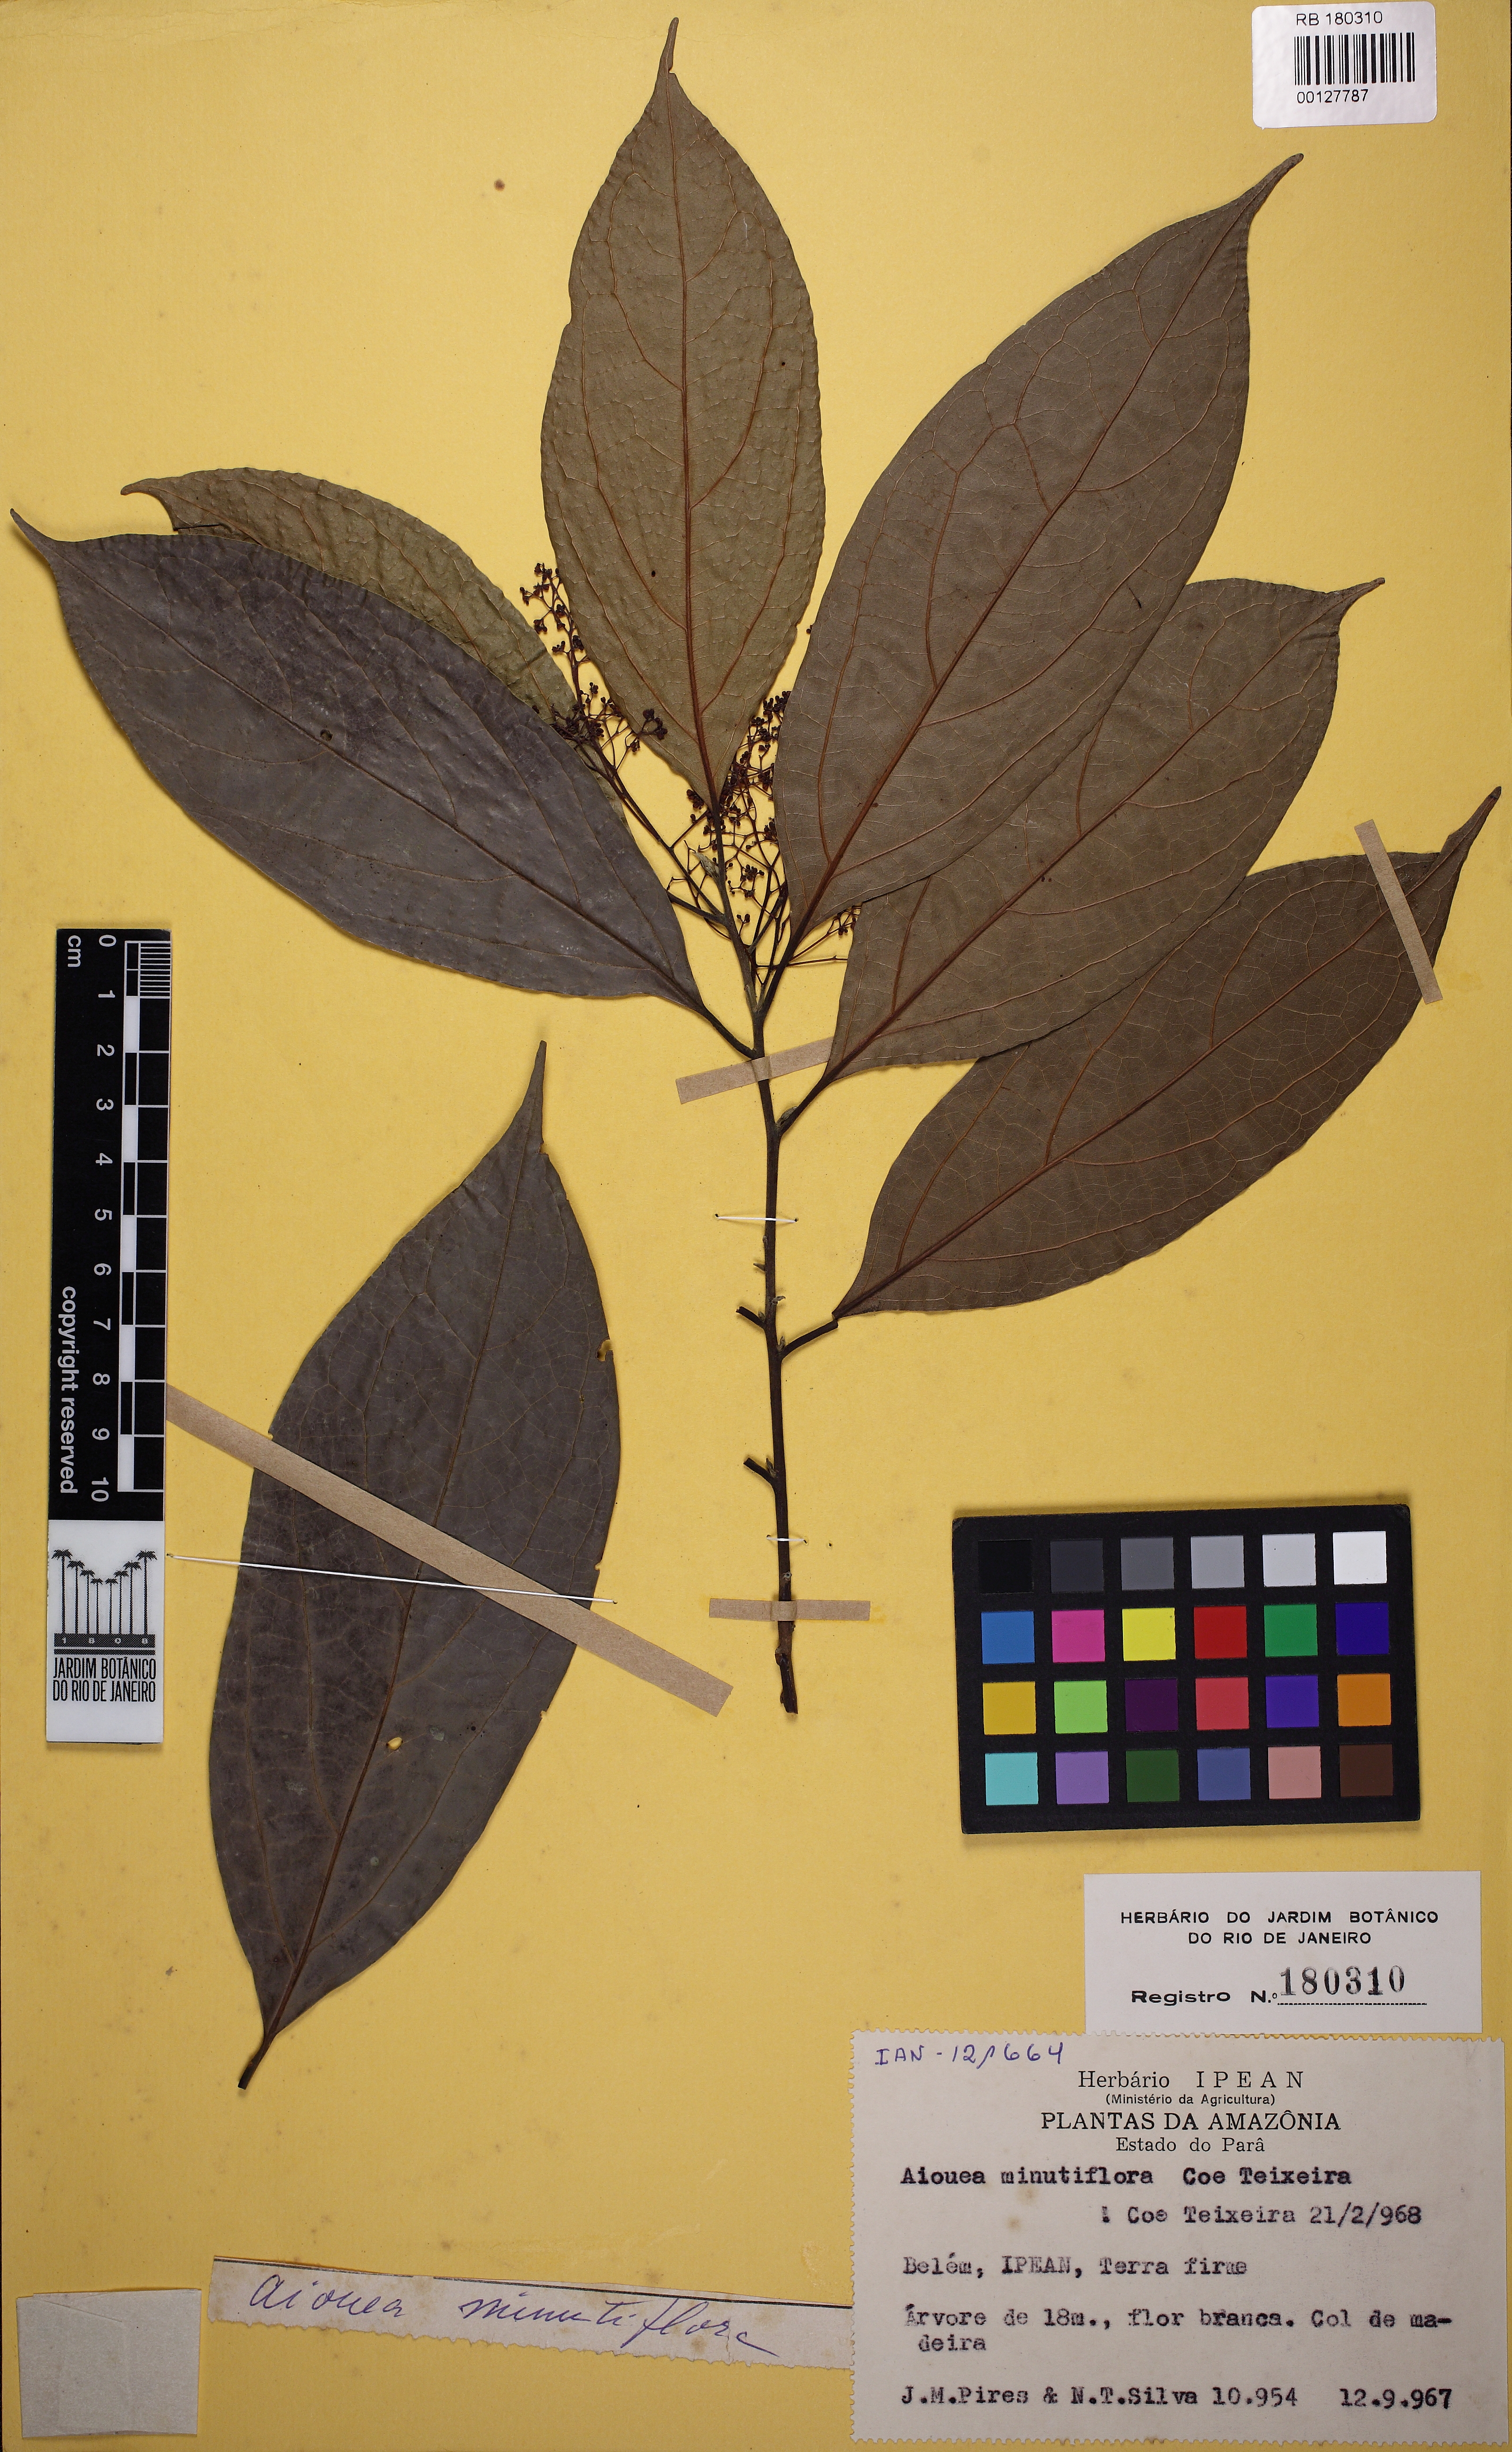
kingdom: Plantae
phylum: Tracheophyta
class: Magnoliopsida
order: Laurales
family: Lauraceae
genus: Aiouea
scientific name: Aiouea impressa
